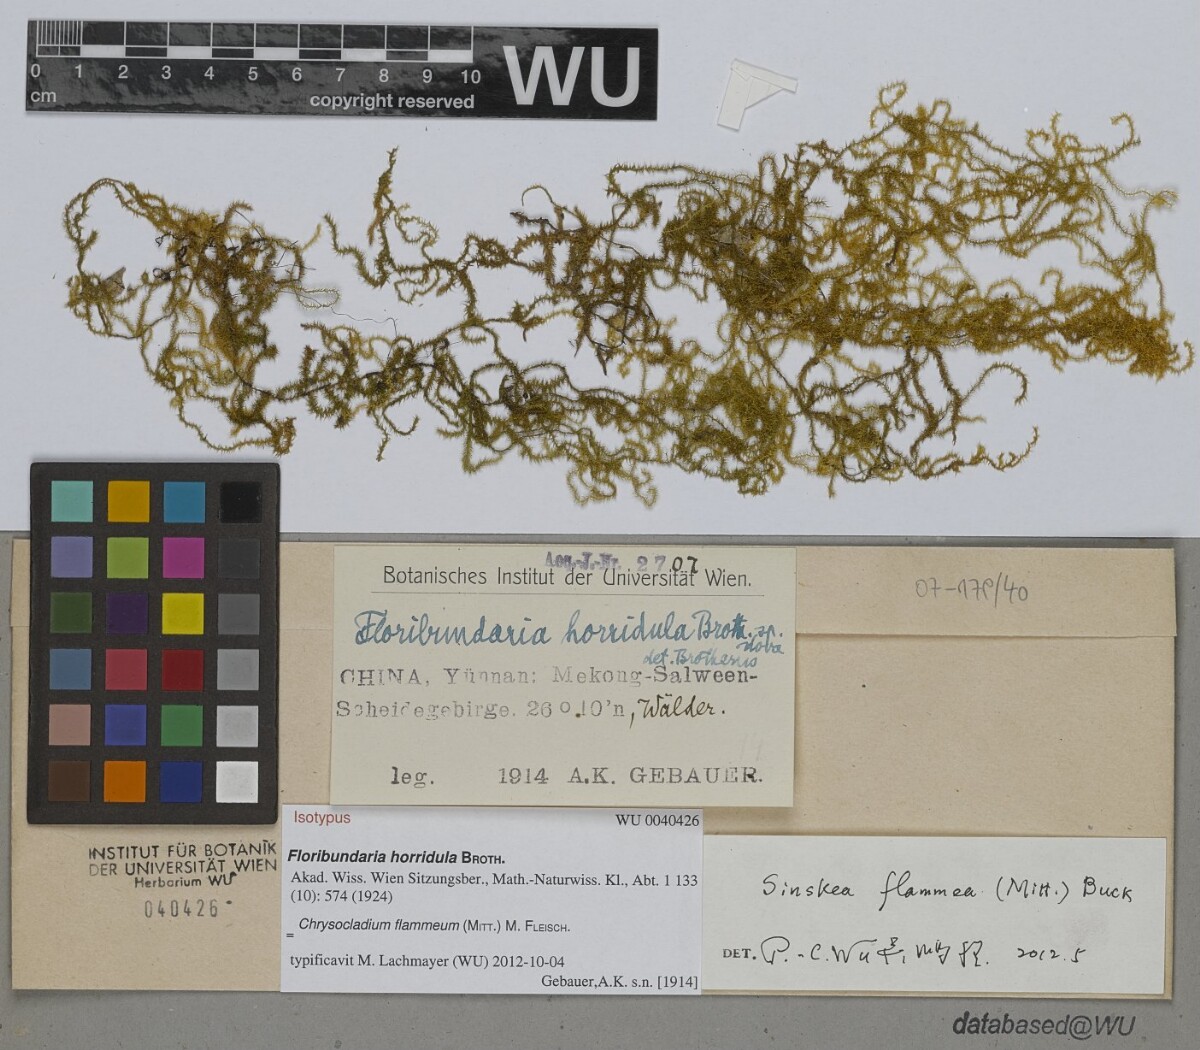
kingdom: Plantae
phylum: Bryophyta
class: Bryopsida
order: Hypnales
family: Meteoriaceae
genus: Sinskea
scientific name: Sinskea flammea
